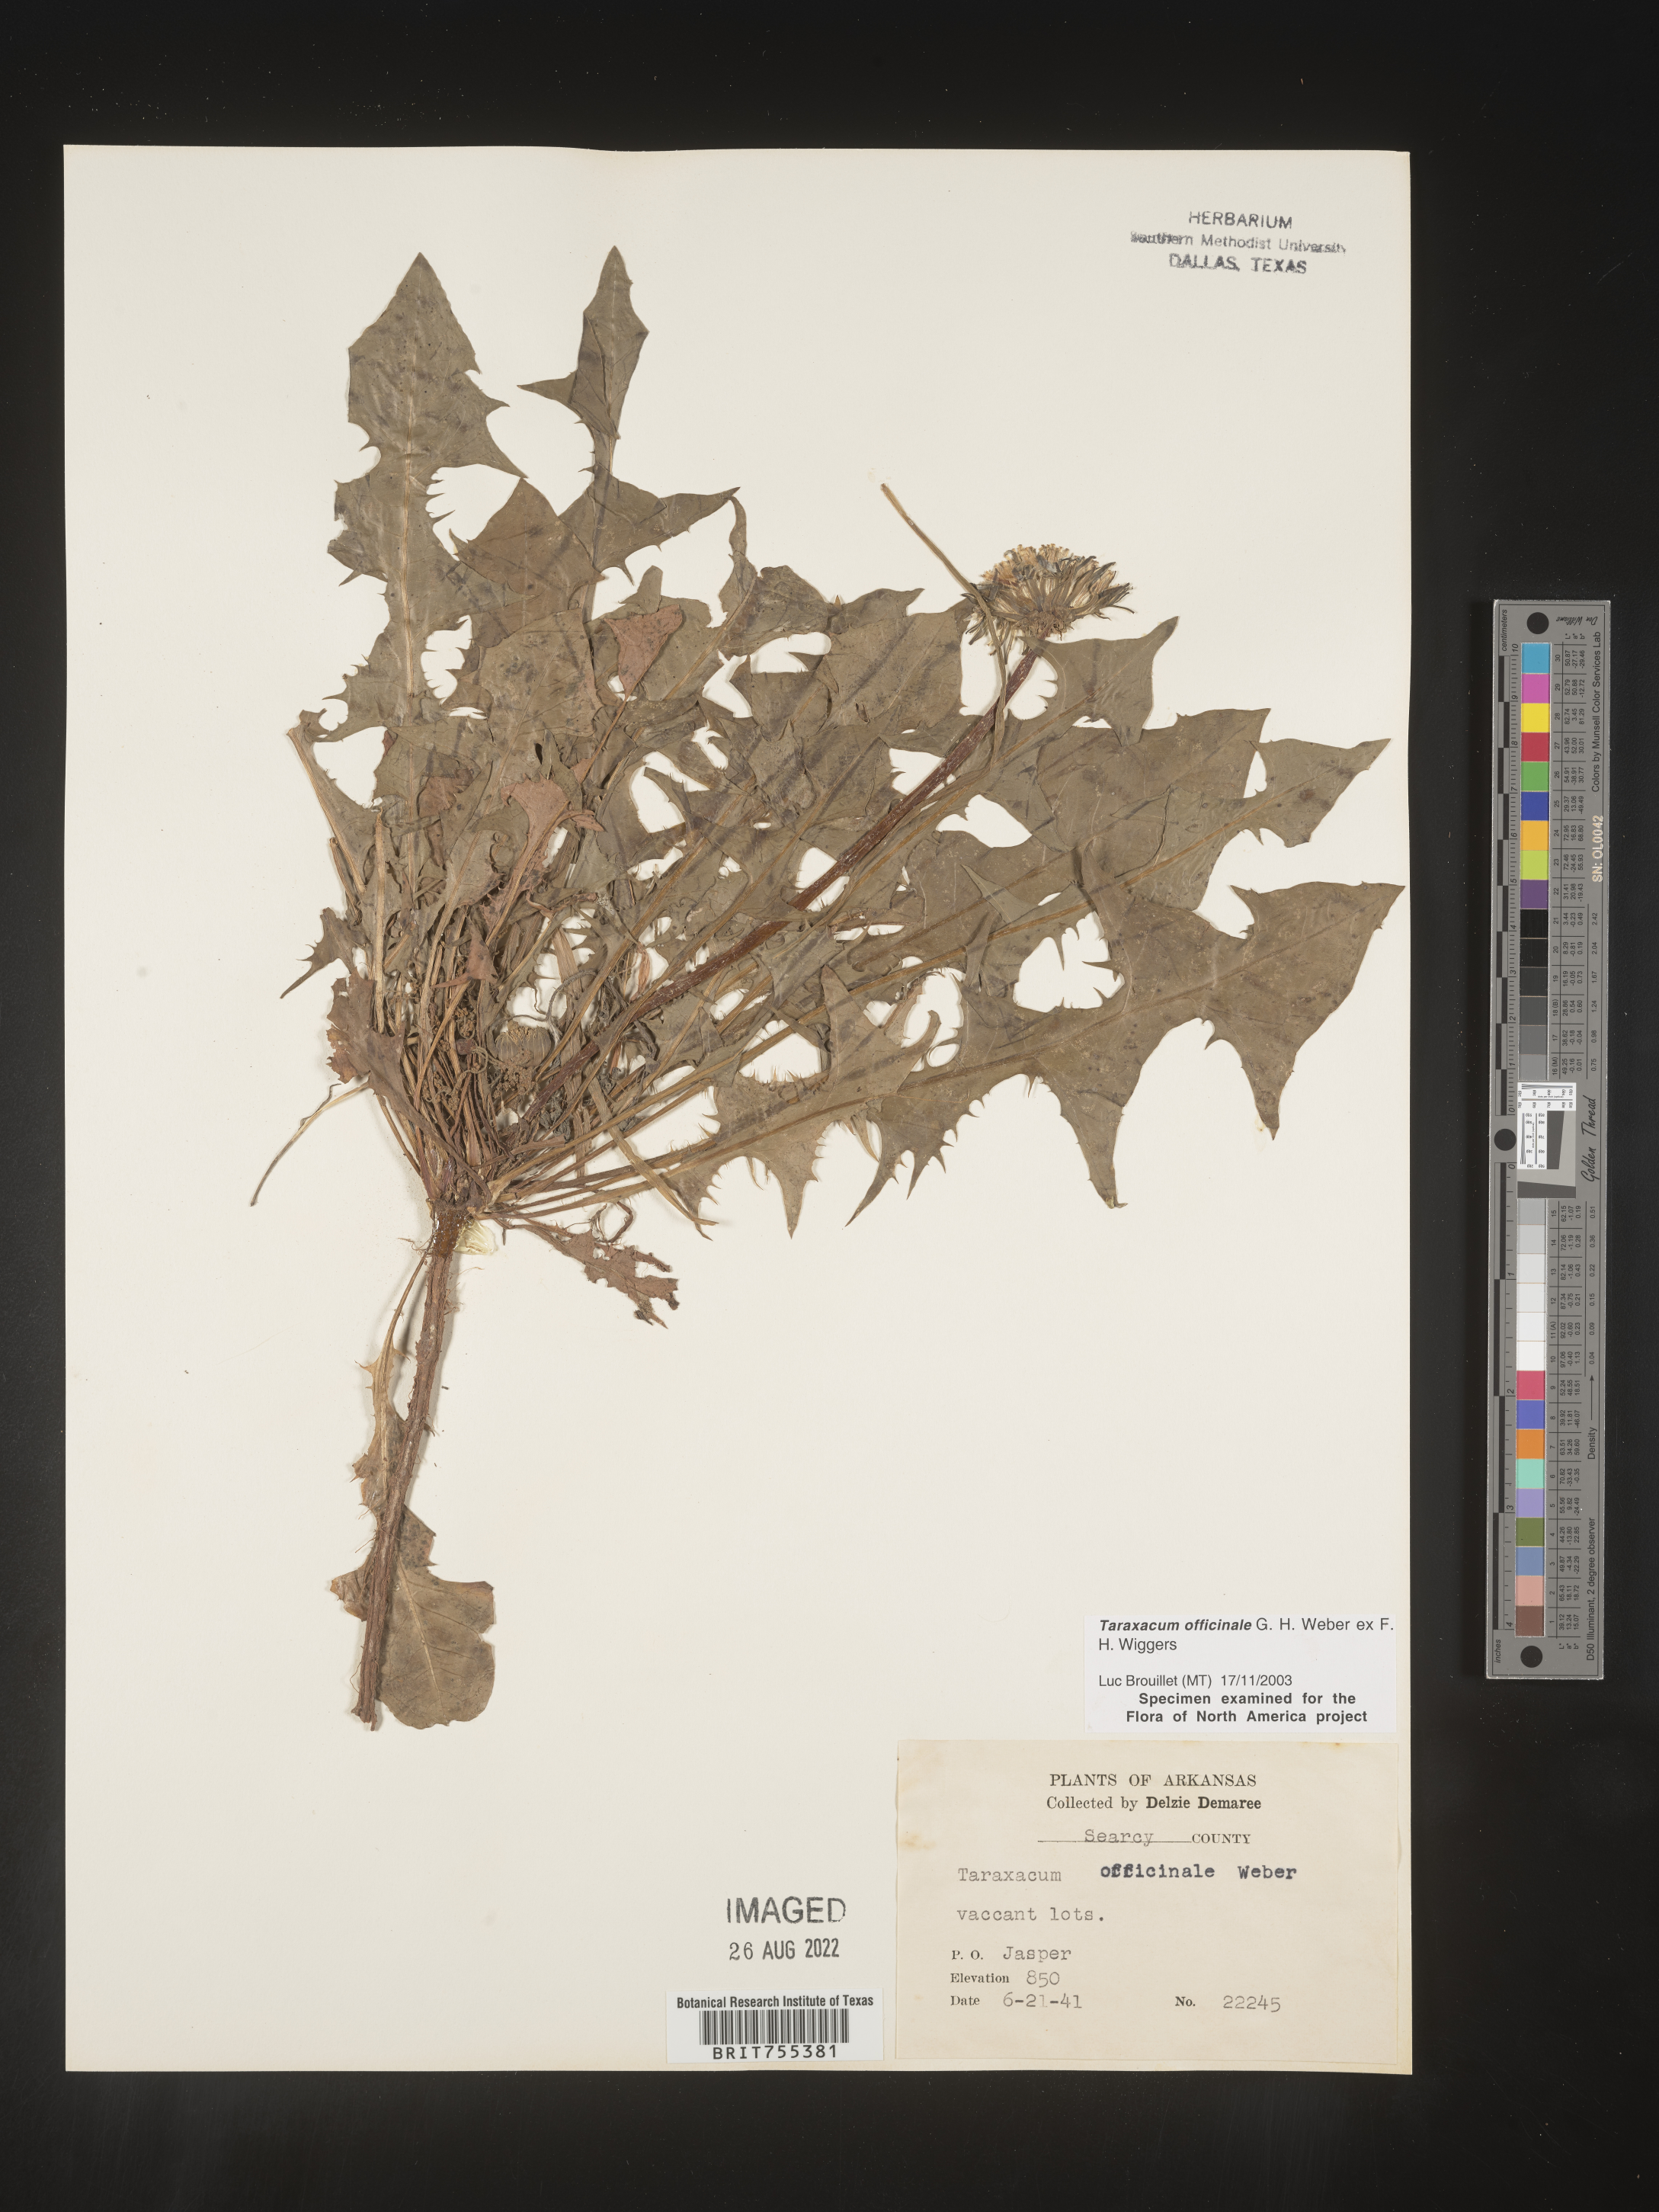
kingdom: Plantae
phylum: Tracheophyta
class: Magnoliopsida
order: Asterales
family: Asteraceae
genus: Taraxacum
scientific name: Taraxacum officinale
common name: Common dandelion
